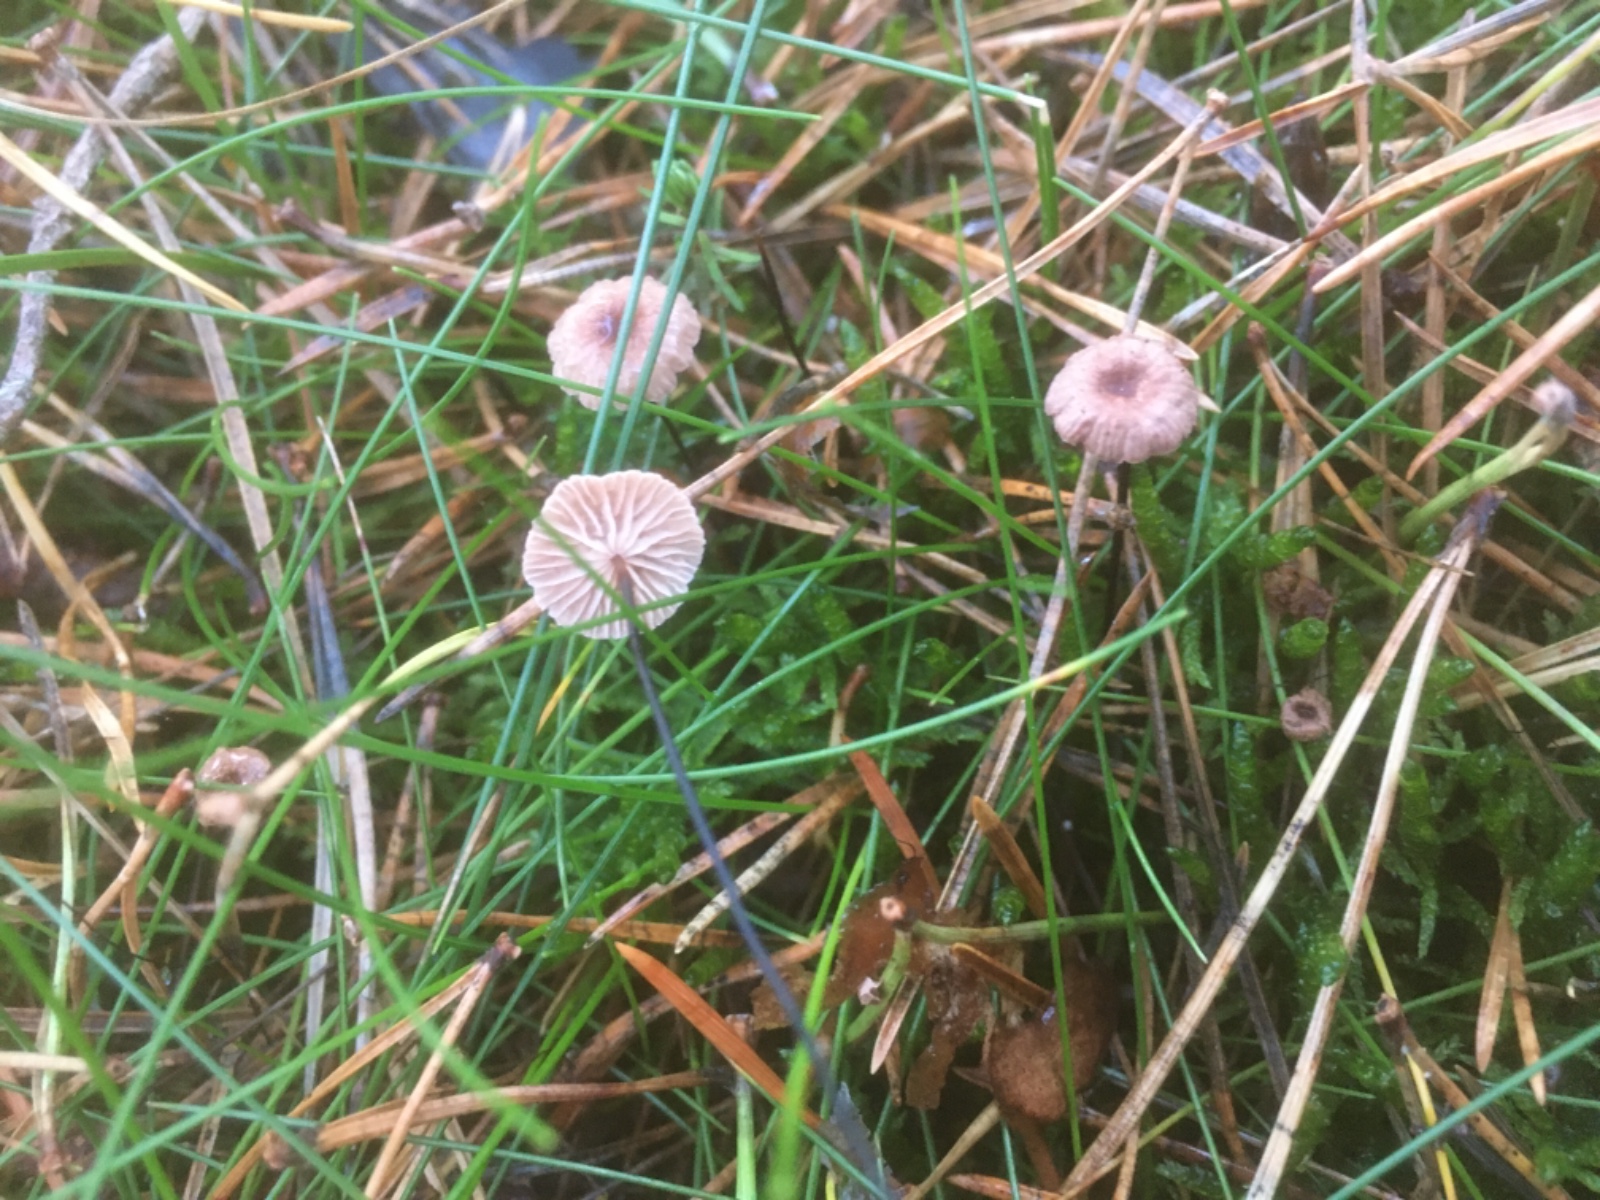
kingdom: Fungi
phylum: Basidiomycota
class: Agaricomycetes
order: Agaricales
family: Omphalotaceae
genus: Gymnopus
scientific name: Gymnopus androsaceus
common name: trådstokket fladhat
